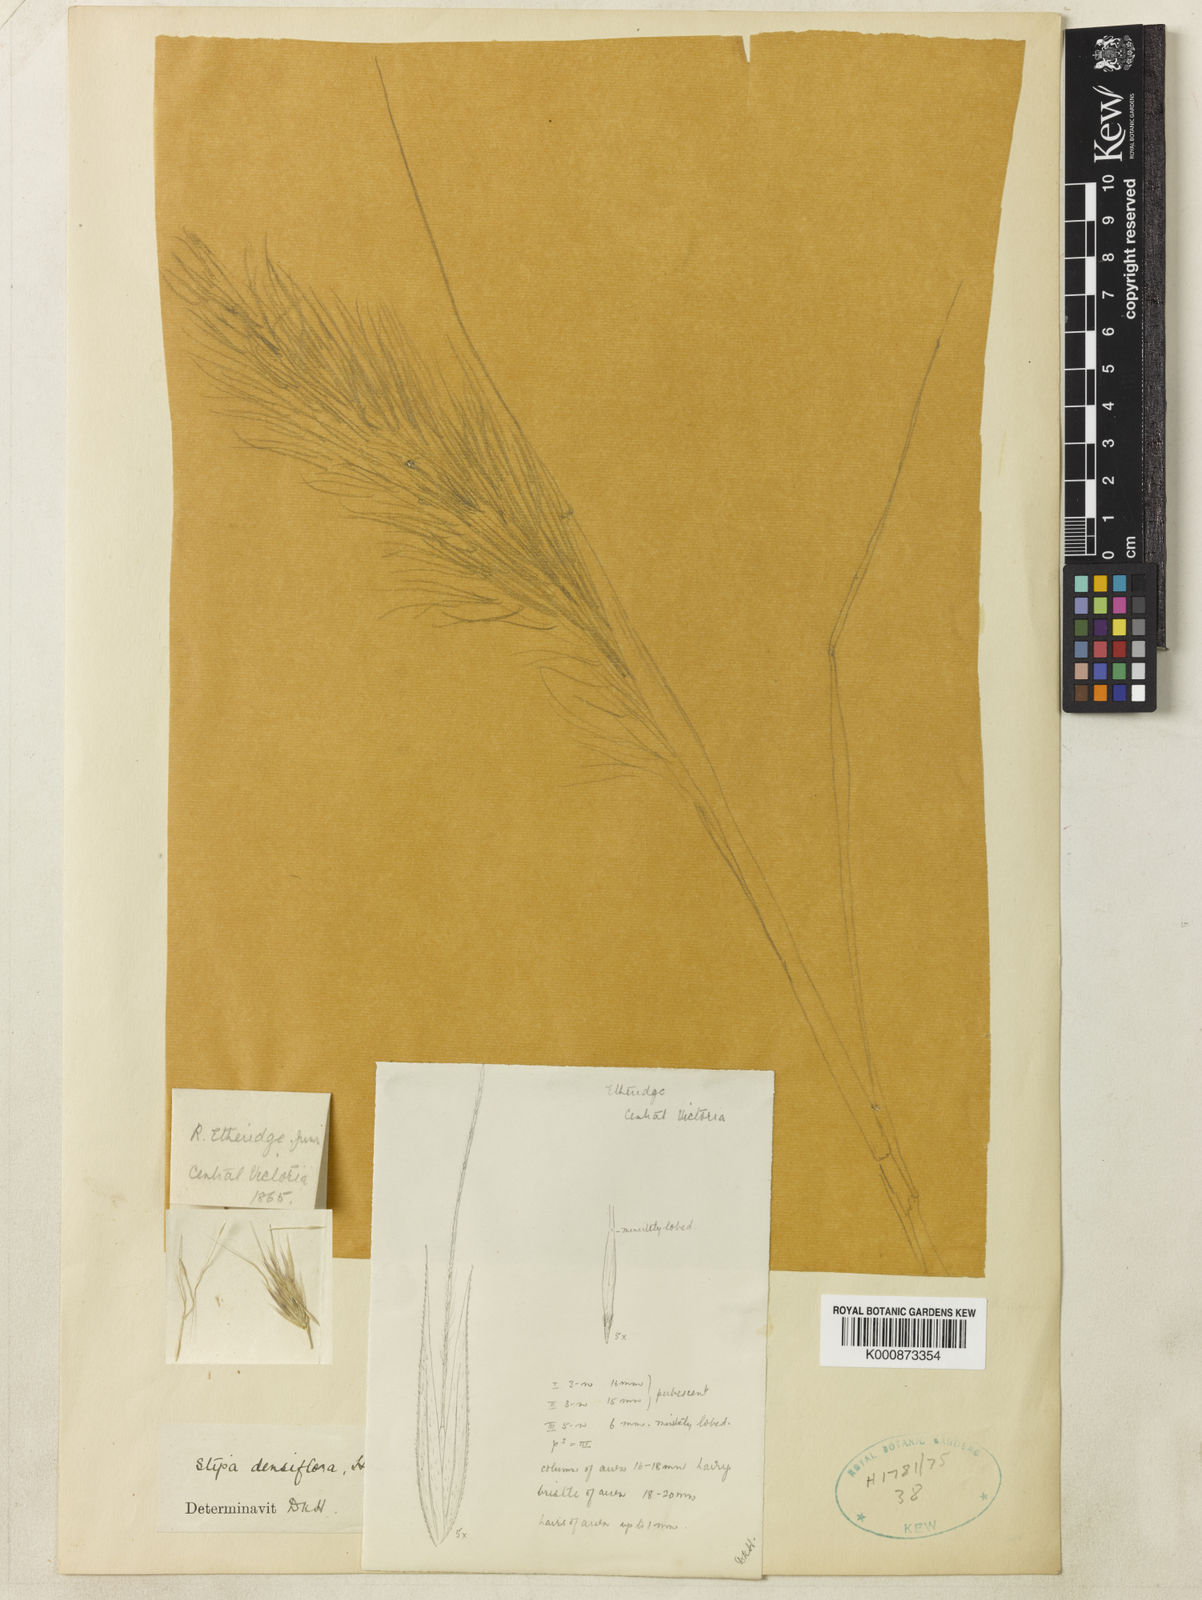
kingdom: Plantae
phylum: Tracheophyta
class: Liliopsida
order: Poales
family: Poaceae
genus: Austrostipa
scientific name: Austrostipa densiflora
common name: Foxtail spear grass
